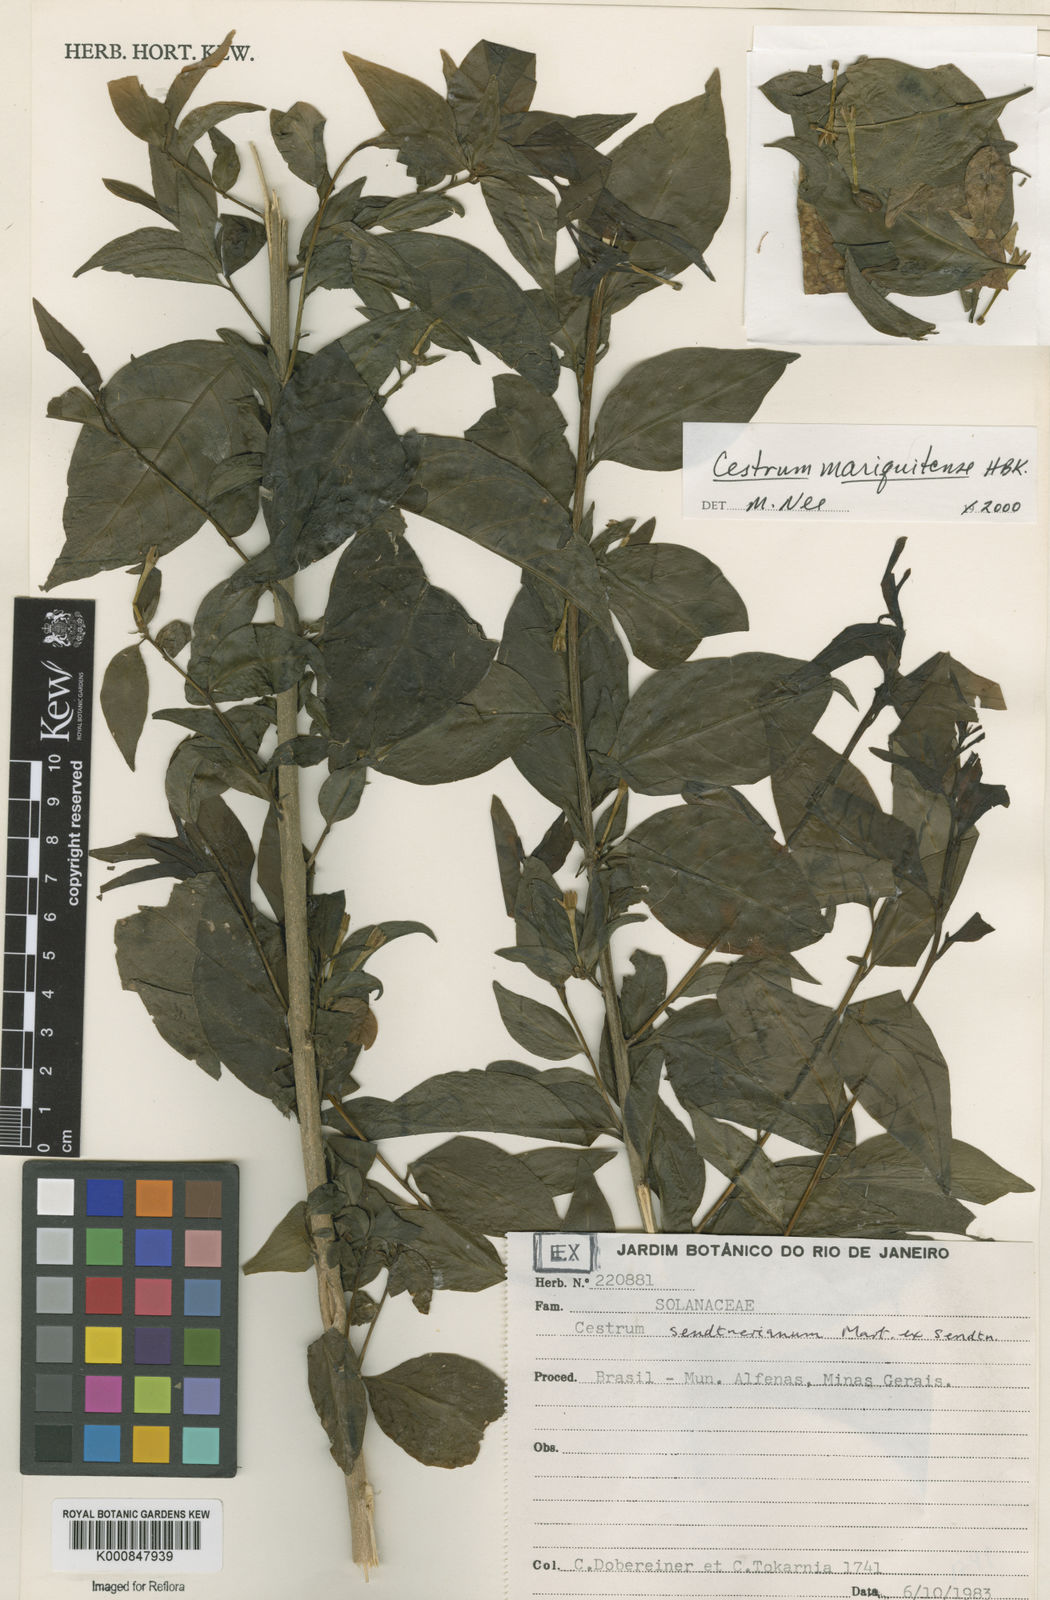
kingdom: Plantae
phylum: Tracheophyta
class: Magnoliopsida
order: Solanales
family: Solanaceae
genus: Cestrum
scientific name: Cestrum mariquitense
